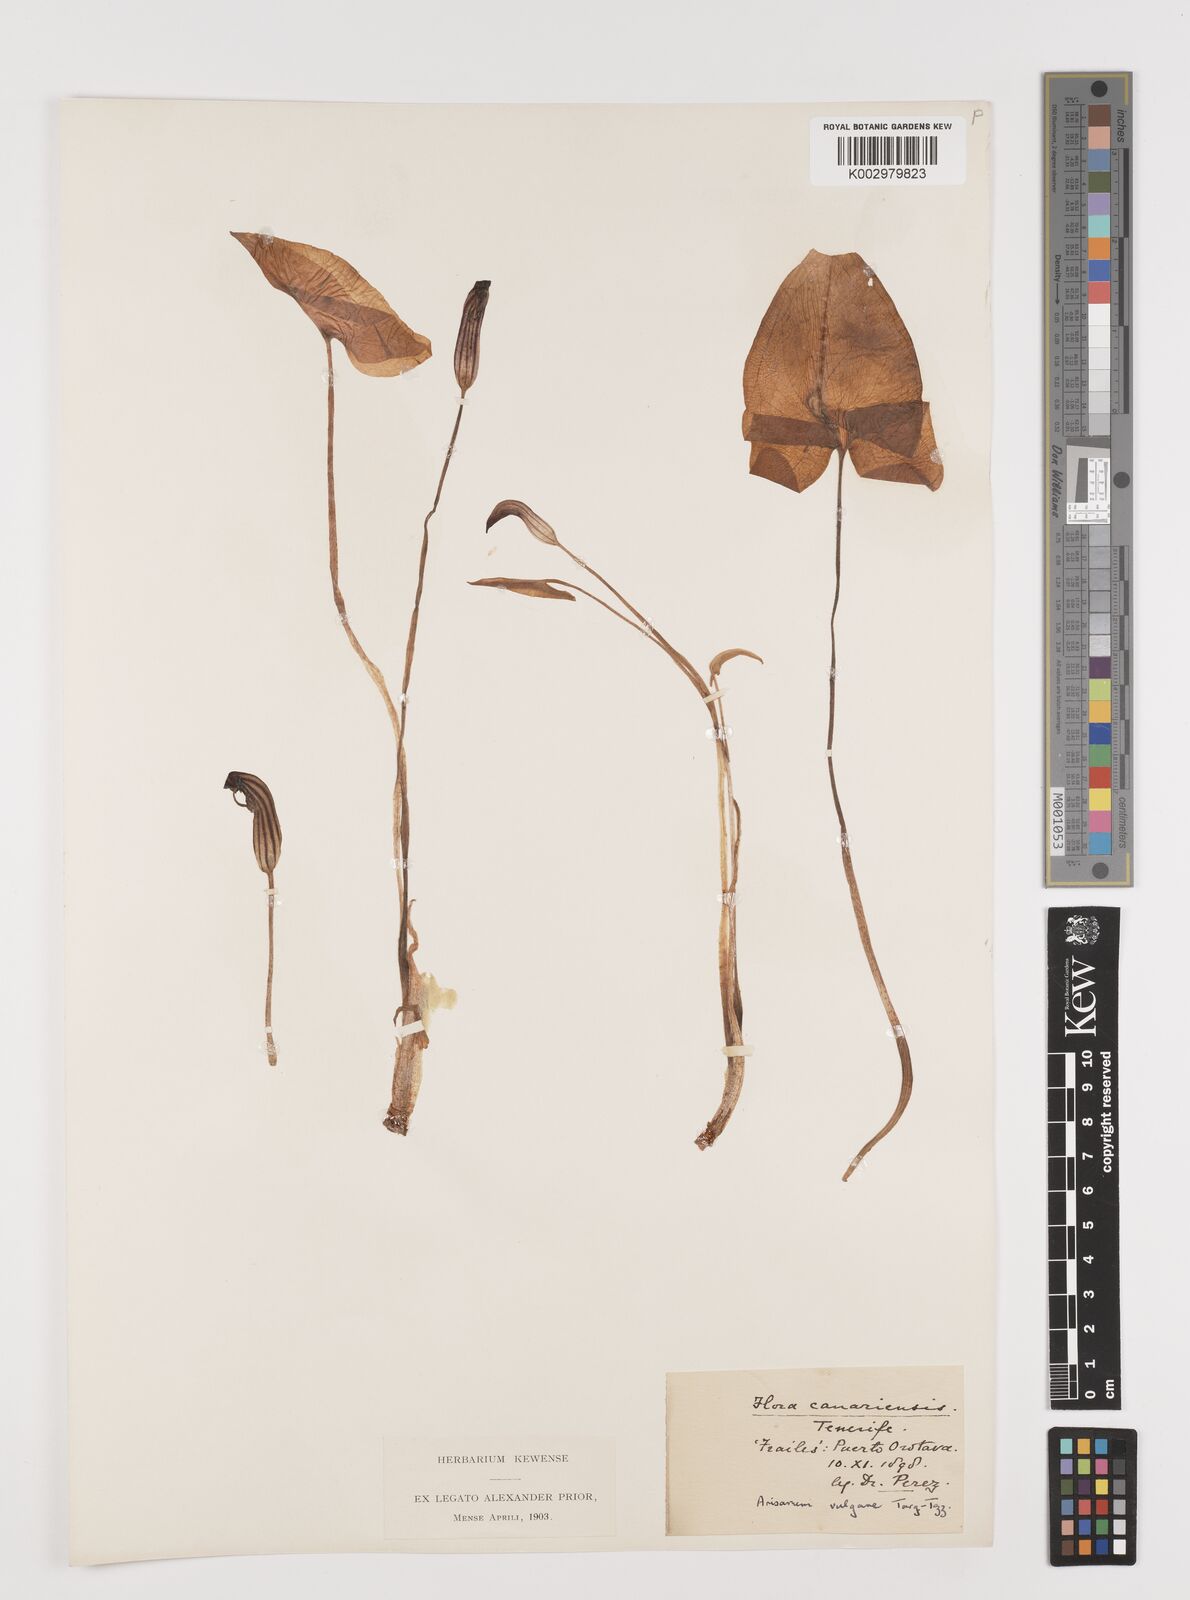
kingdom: Plantae
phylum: Tracheophyta
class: Liliopsida
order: Alismatales
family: Araceae
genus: Arisarum
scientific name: Arisarum vulgare
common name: Common arisarum
